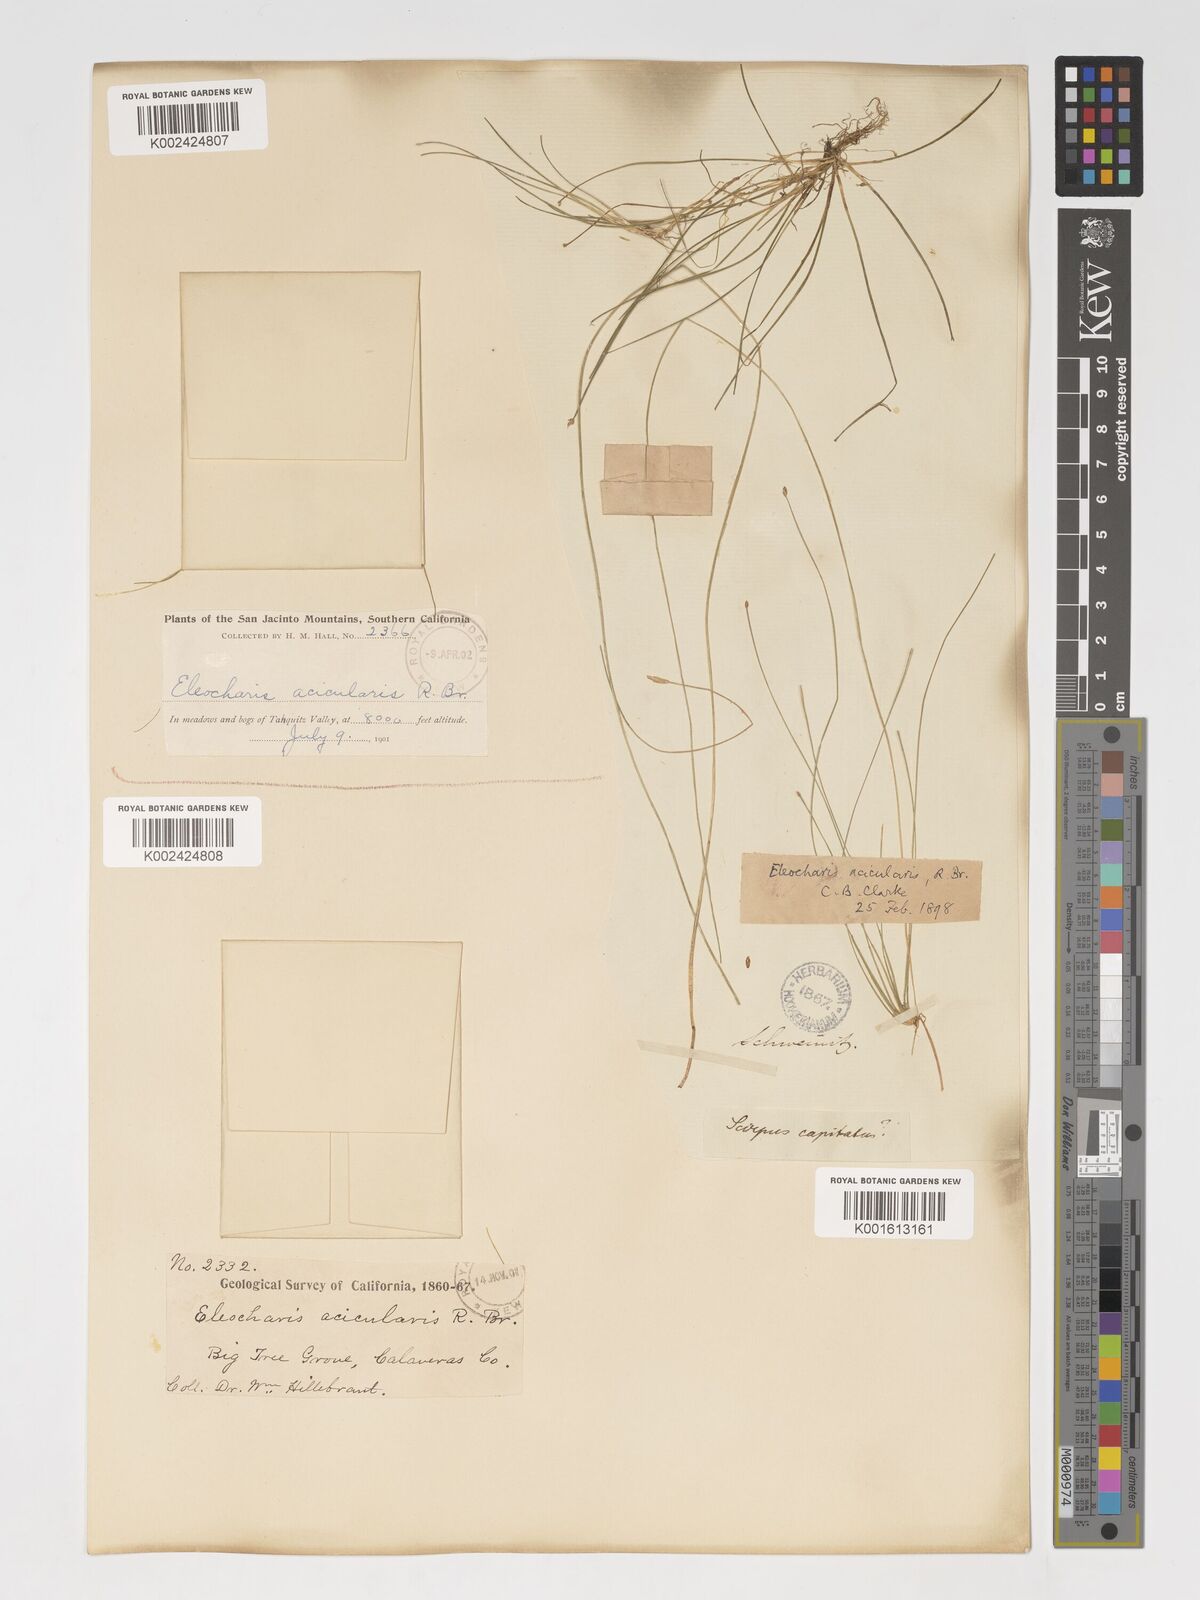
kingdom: Plantae
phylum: Tracheophyta
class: Liliopsida
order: Poales
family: Cyperaceae
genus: Eleocharis
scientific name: Eleocharis acicularis
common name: Needle spike-rush
